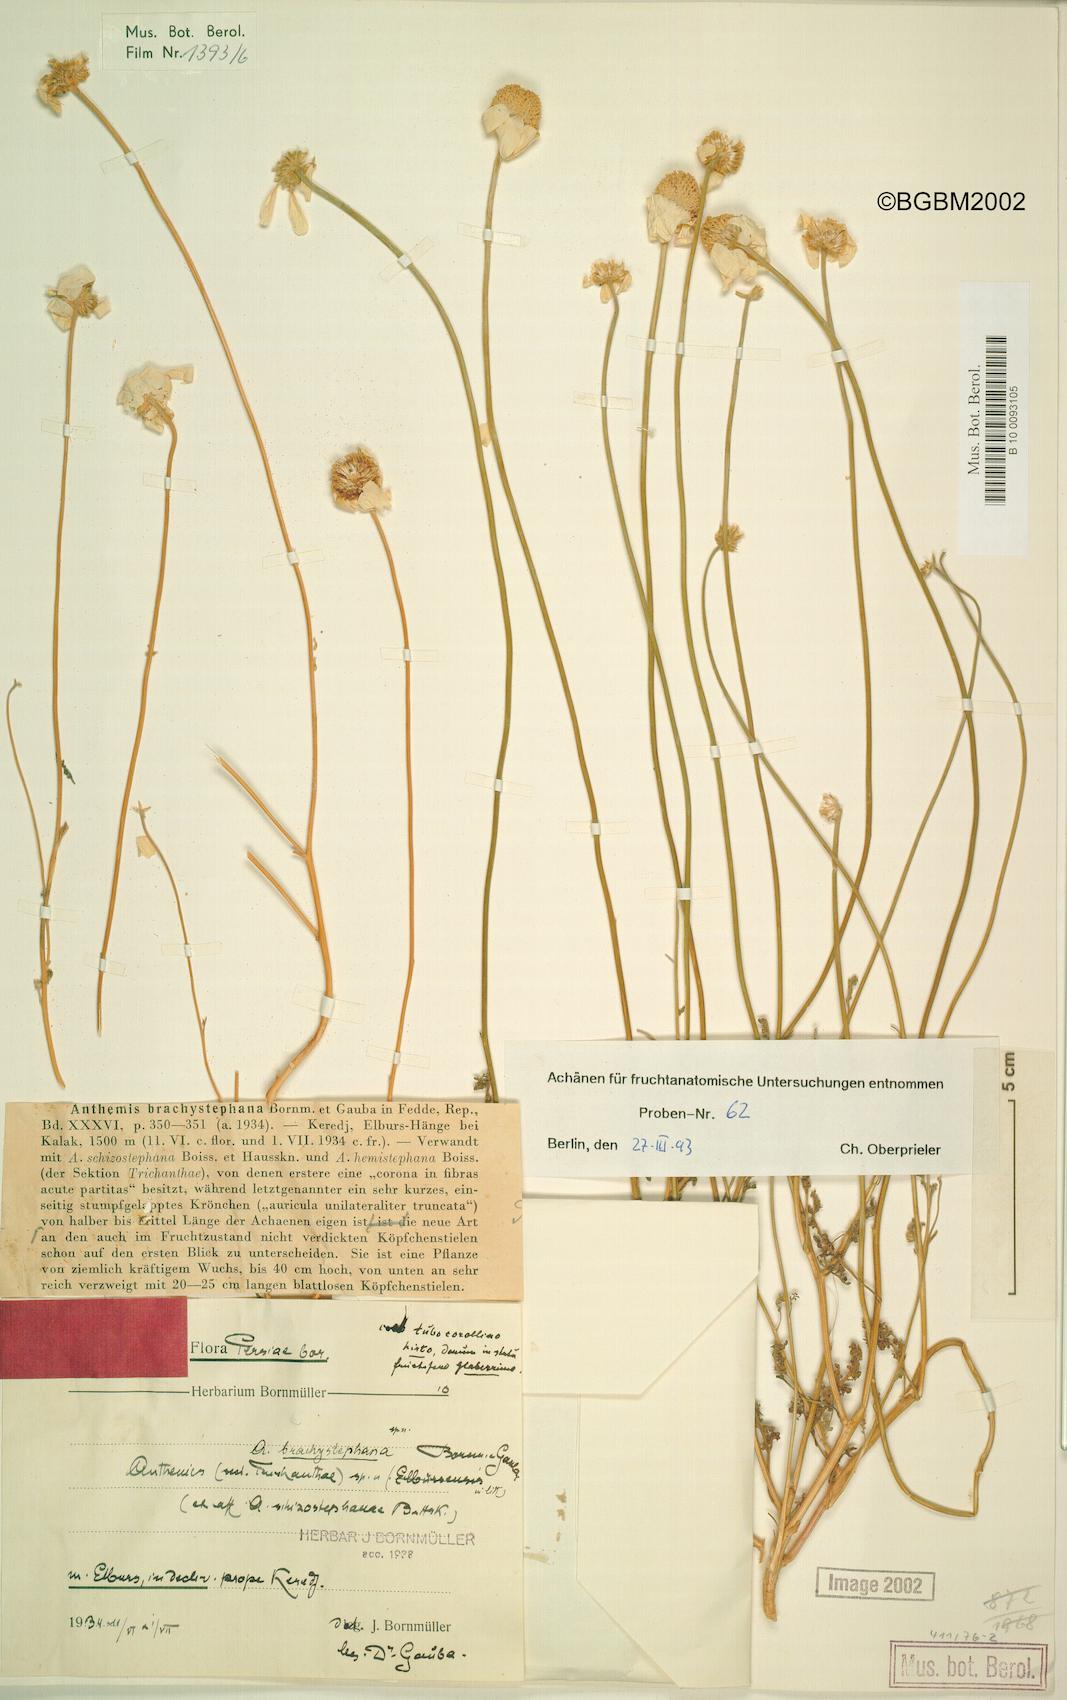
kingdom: Plantae
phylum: Tracheophyta
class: Magnoliopsida
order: Asterales
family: Asteraceae
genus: Anthemis
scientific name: Anthemis brachystephana
